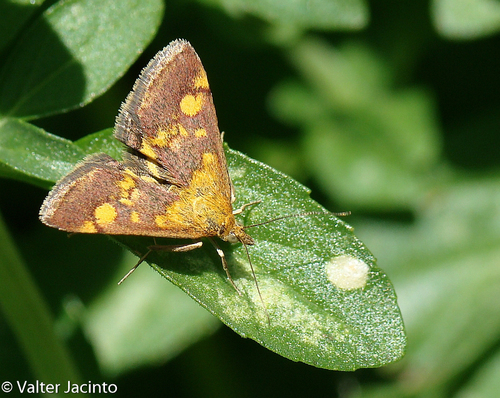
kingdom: Animalia
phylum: Arthropoda
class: Insecta
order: Lepidoptera
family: Crambidae
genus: Pyrausta
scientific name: Pyrausta aurata
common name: Small purple & gold
